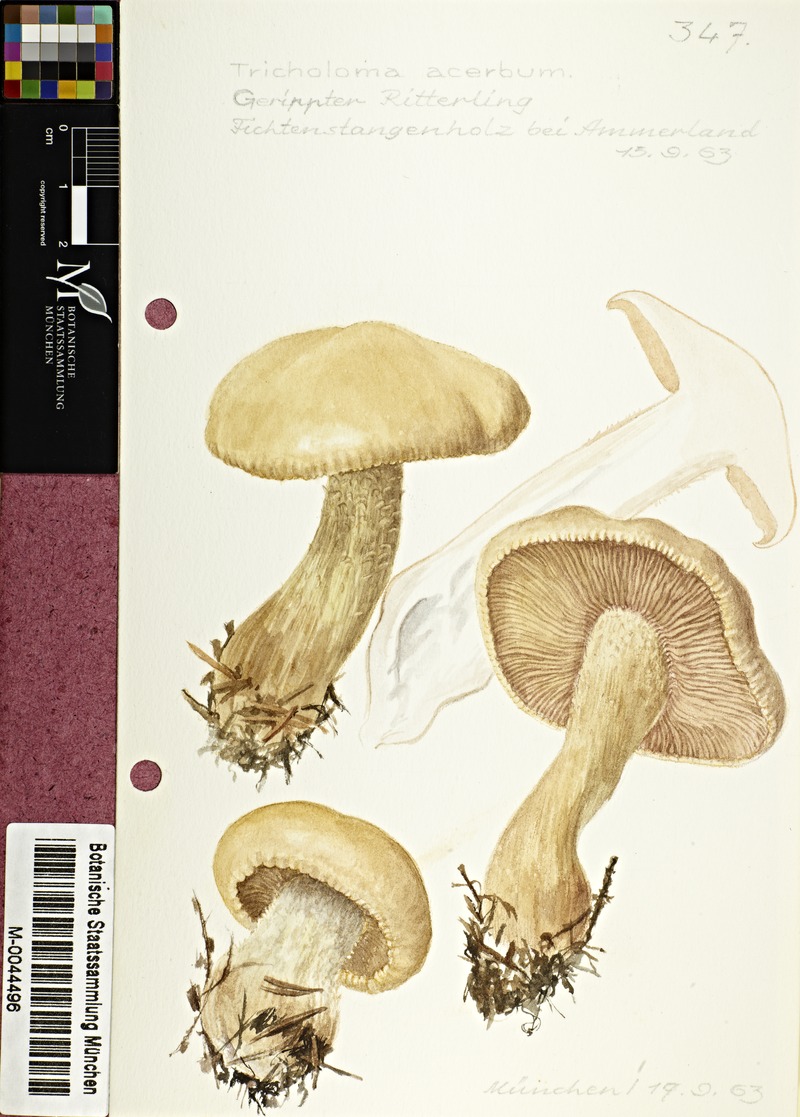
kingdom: Fungi
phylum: Basidiomycota
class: Agaricomycetes
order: Agaricales
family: Tricholomataceae
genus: Tricholoma
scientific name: Tricholoma acerbum
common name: Bitter knight
